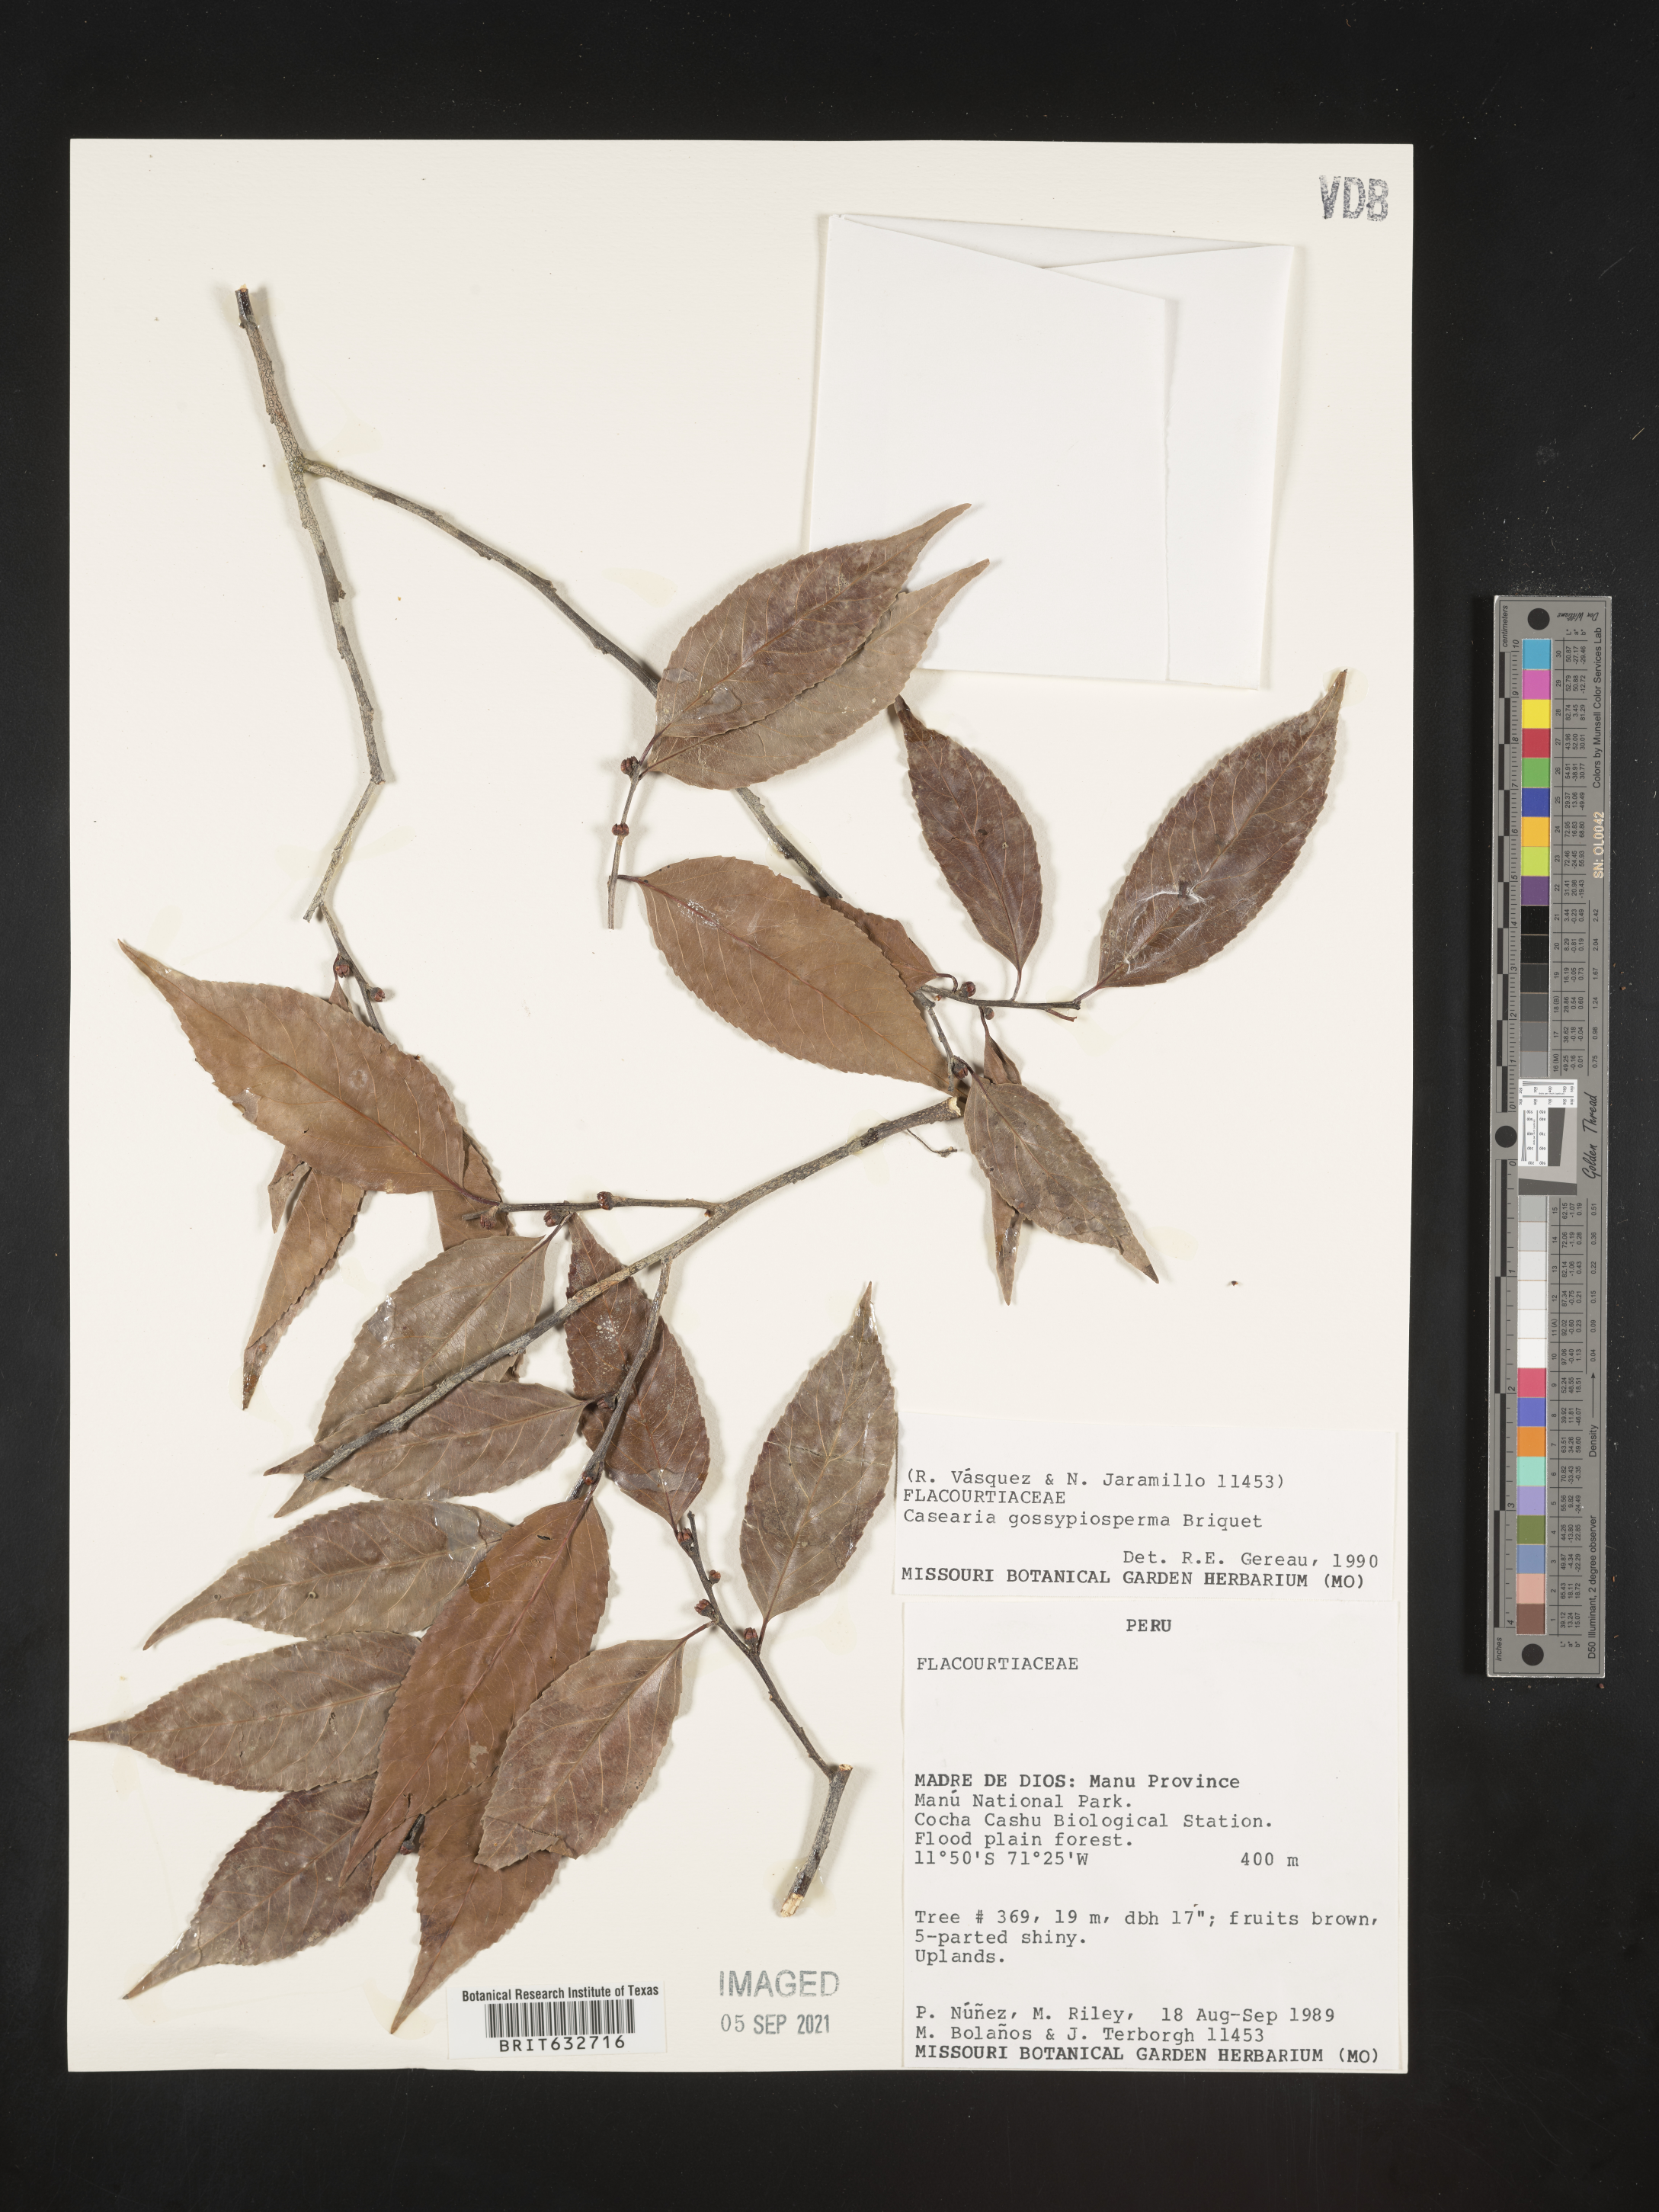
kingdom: Plantae
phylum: Tracheophyta
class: Magnoliopsida
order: Malpighiales
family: Salicaceae
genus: Casearia
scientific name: Casearia
